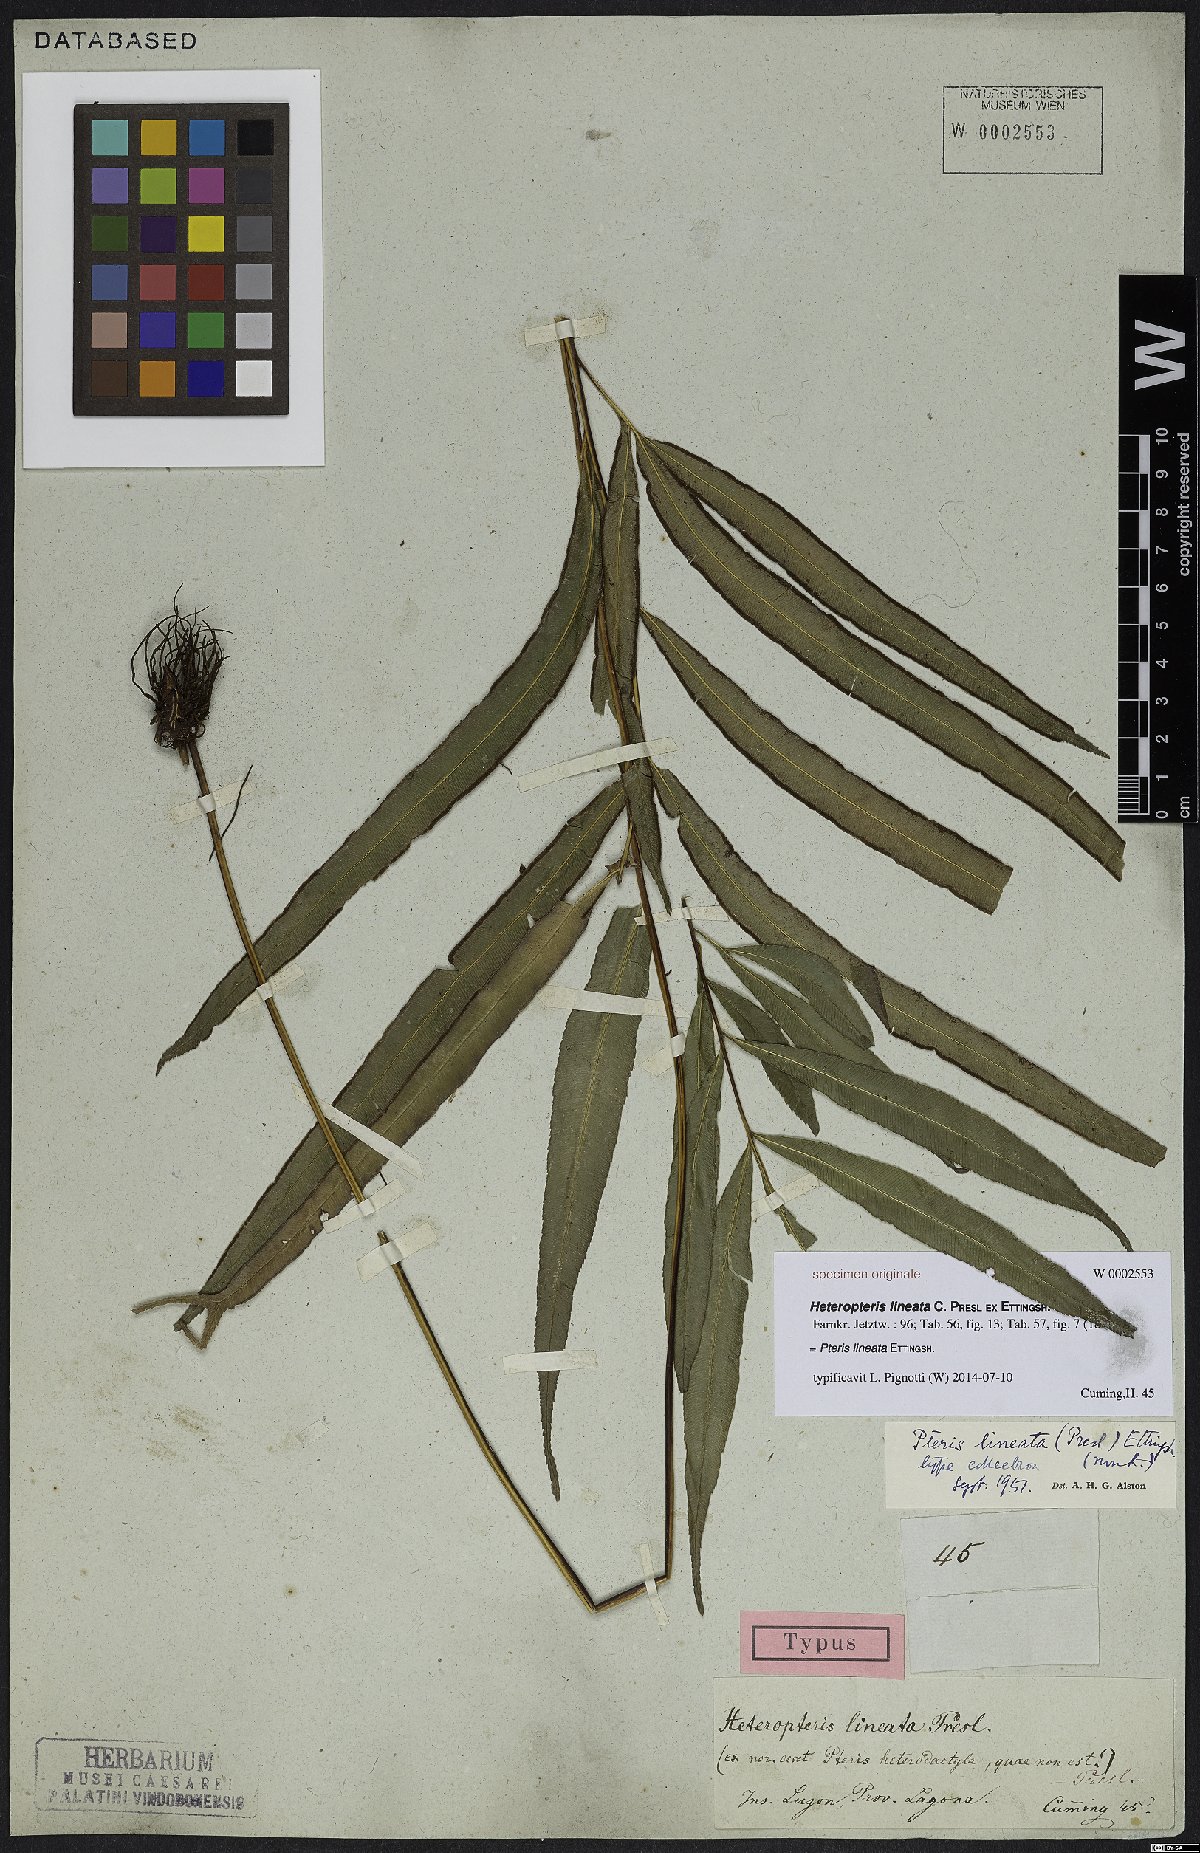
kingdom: Plantae
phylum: Tracheophyta
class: Polypodiopsida
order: Polypodiales
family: Pteridaceae
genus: Pteris
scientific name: Pteris lineata
